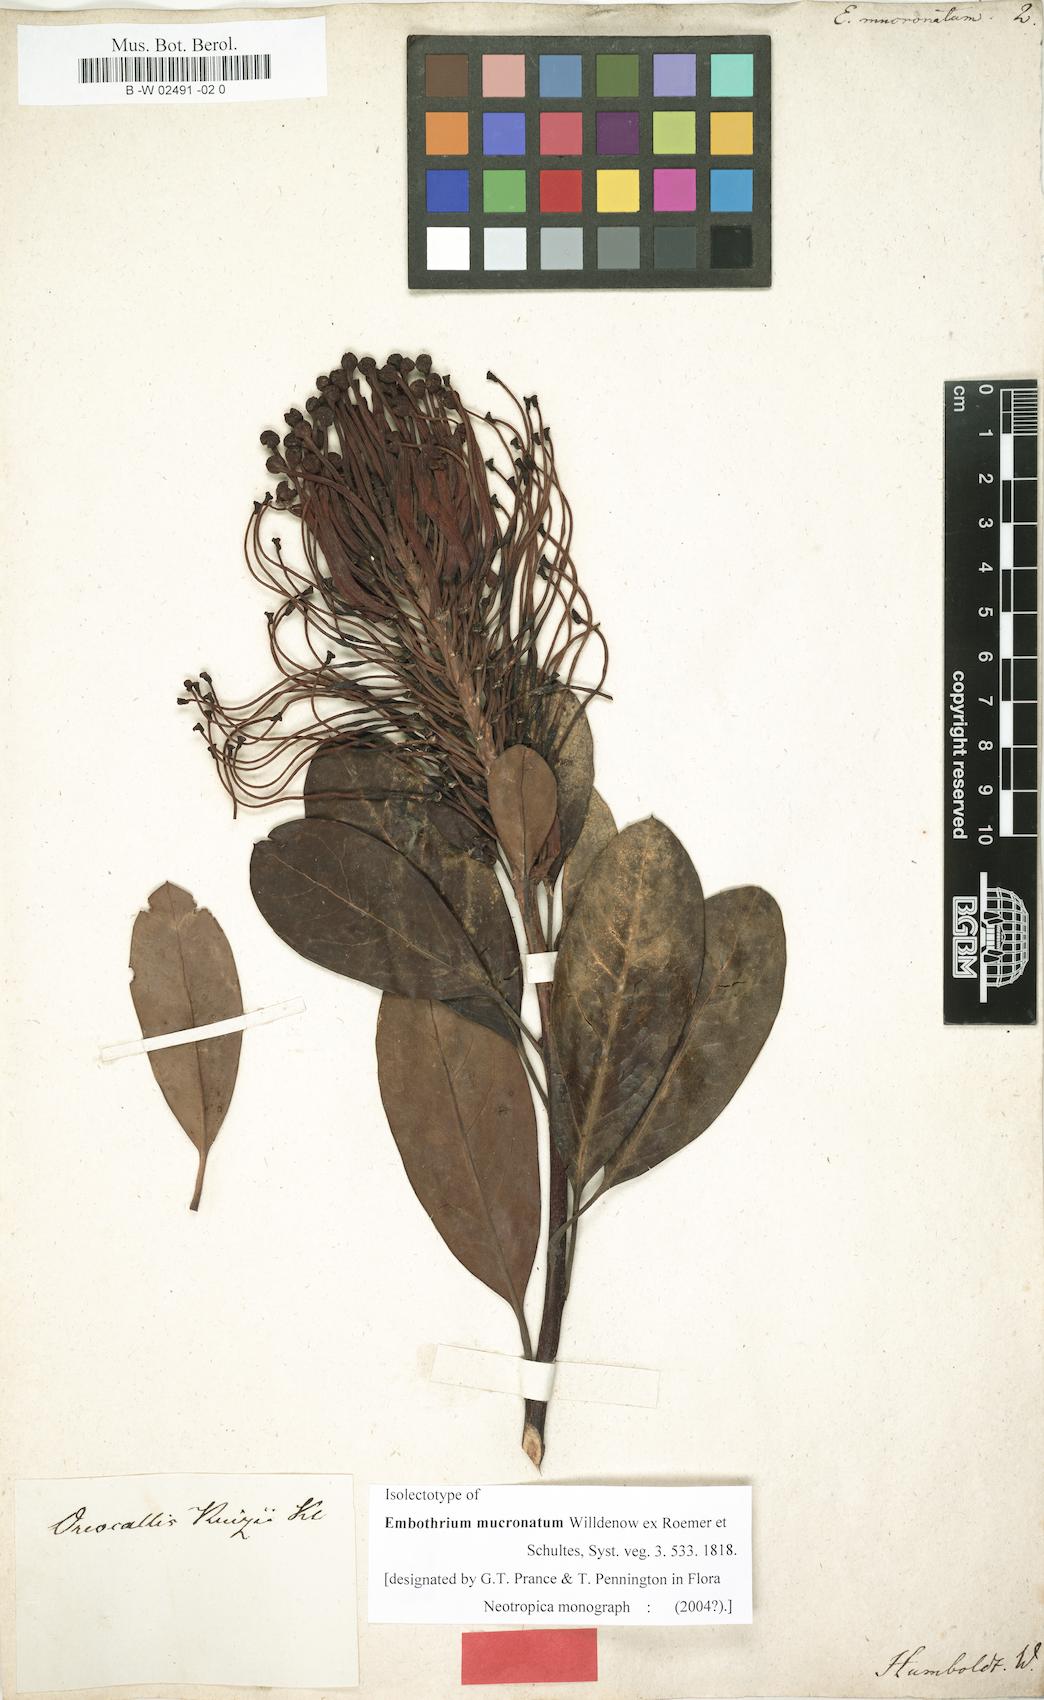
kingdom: Plantae
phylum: Tracheophyta
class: Magnoliopsida
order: Proteales
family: Proteaceae
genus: Oreocallis
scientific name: Oreocallis grandiflora
